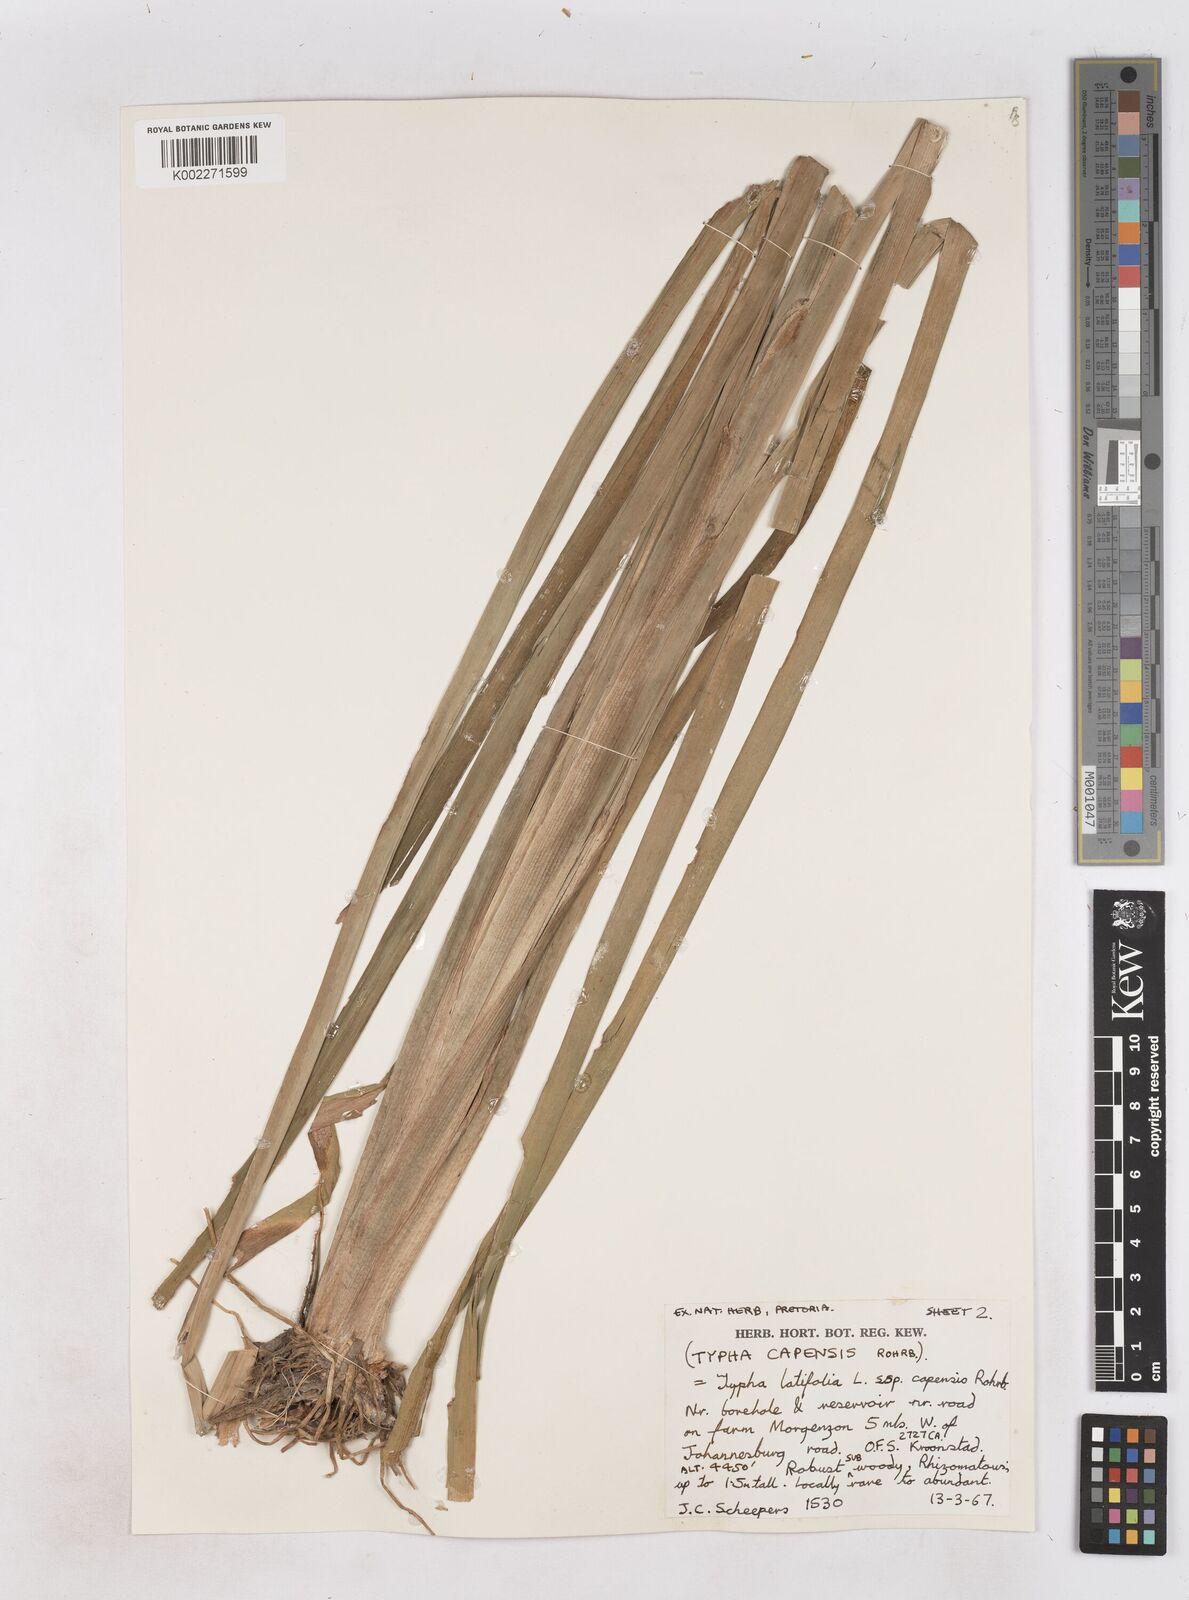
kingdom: Plantae
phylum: Tracheophyta
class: Liliopsida
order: Poales
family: Typhaceae
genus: Typha
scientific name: Typha capensis
